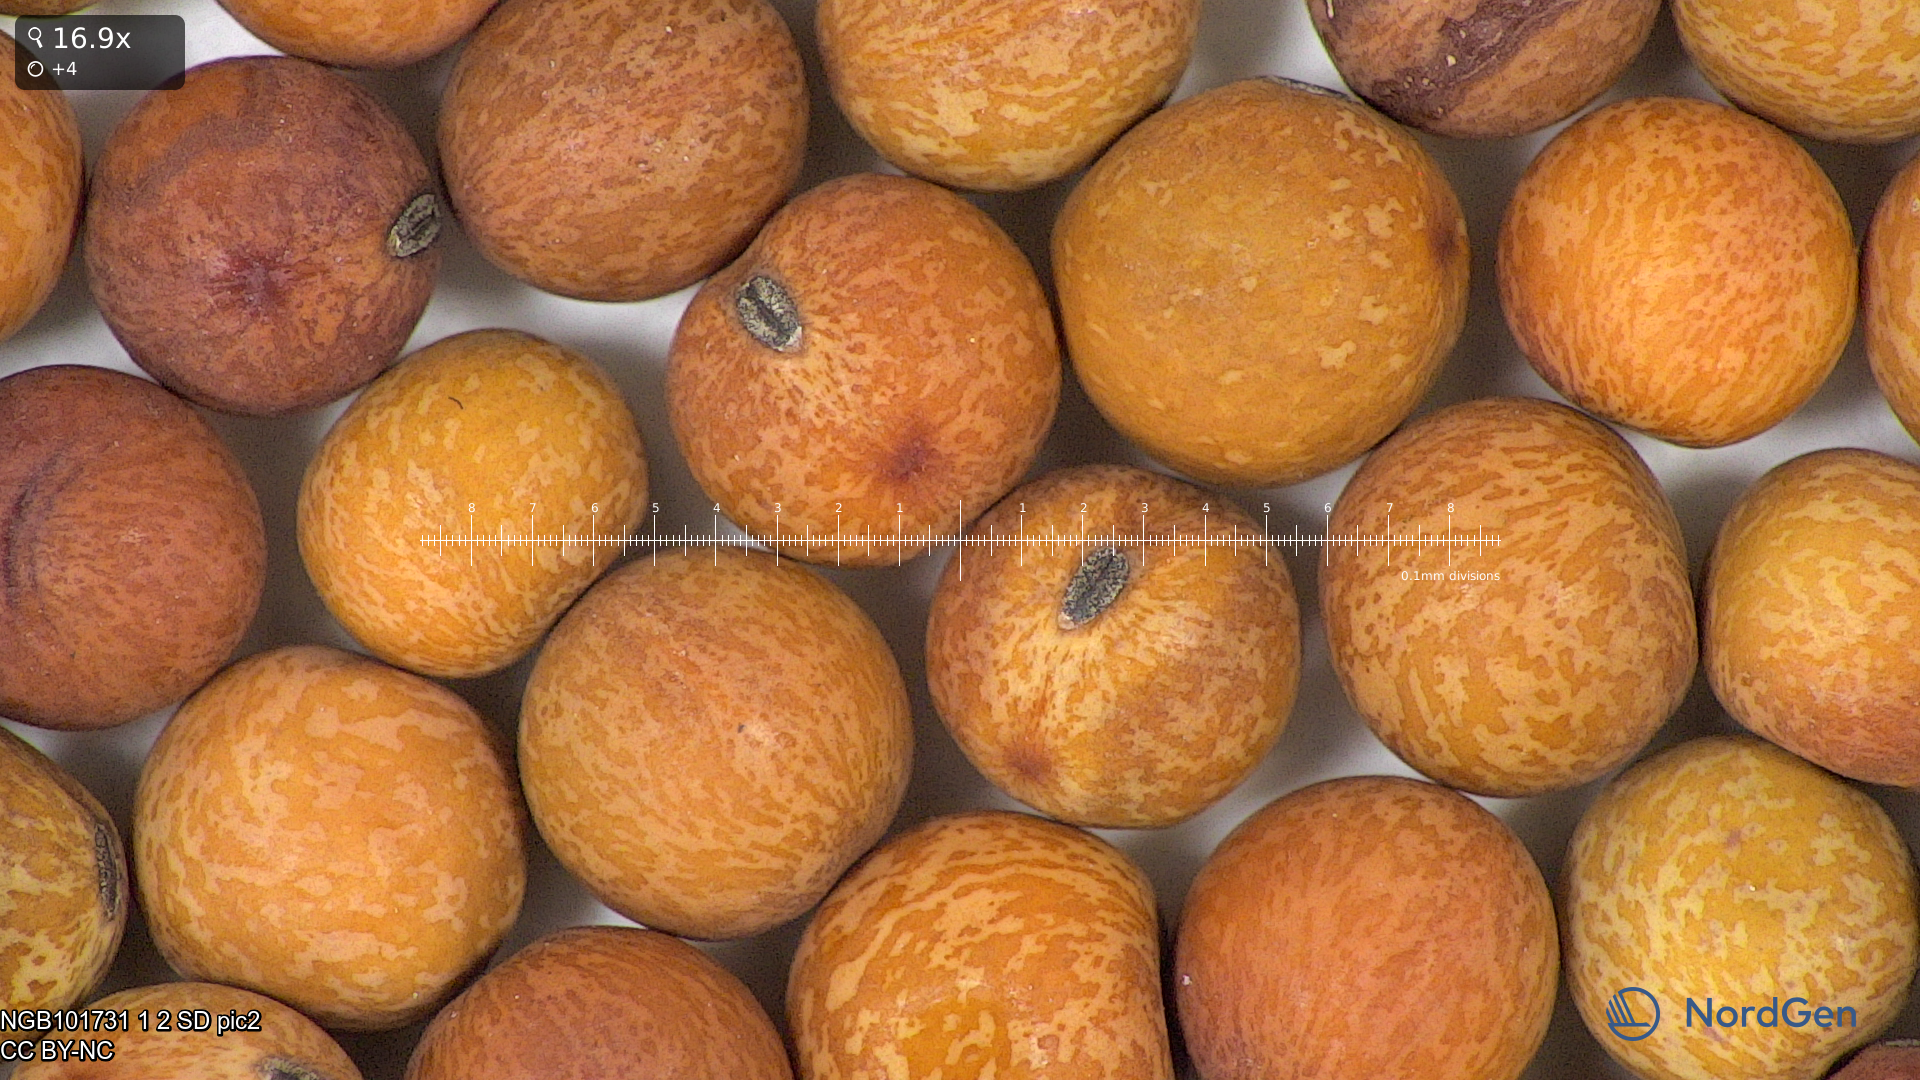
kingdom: Plantae
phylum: Tracheophyta
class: Magnoliopsida
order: Fabales
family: Fabaceae
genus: Lathyrus
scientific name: Lathyrus oleraceus
